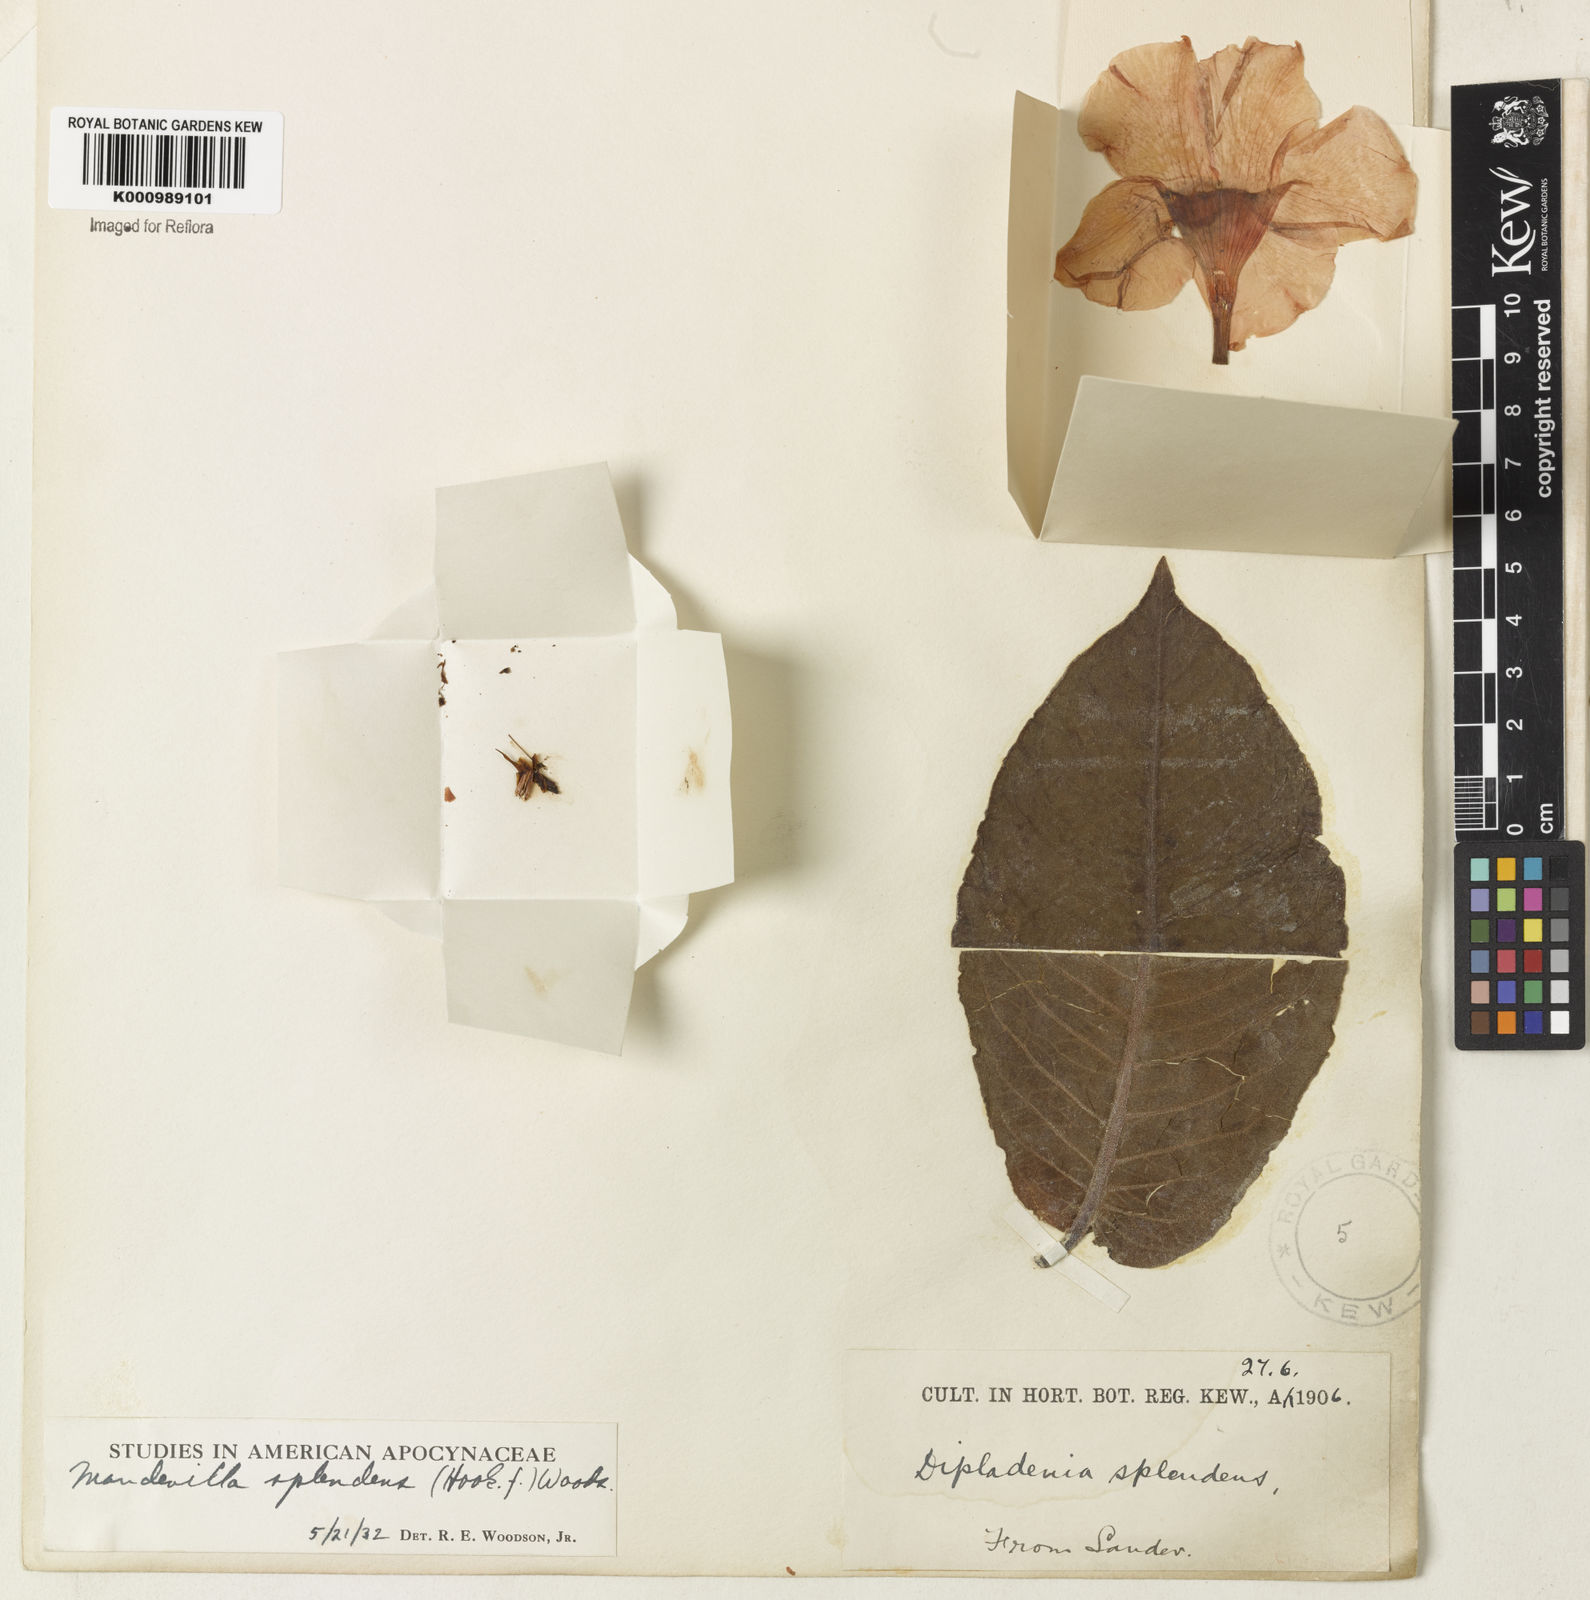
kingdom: Plantae
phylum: Tracheophyta
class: Magnoliopsida
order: Gentianales
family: Apocynaceae
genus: Mandevilla
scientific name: Mandevilla splendens
